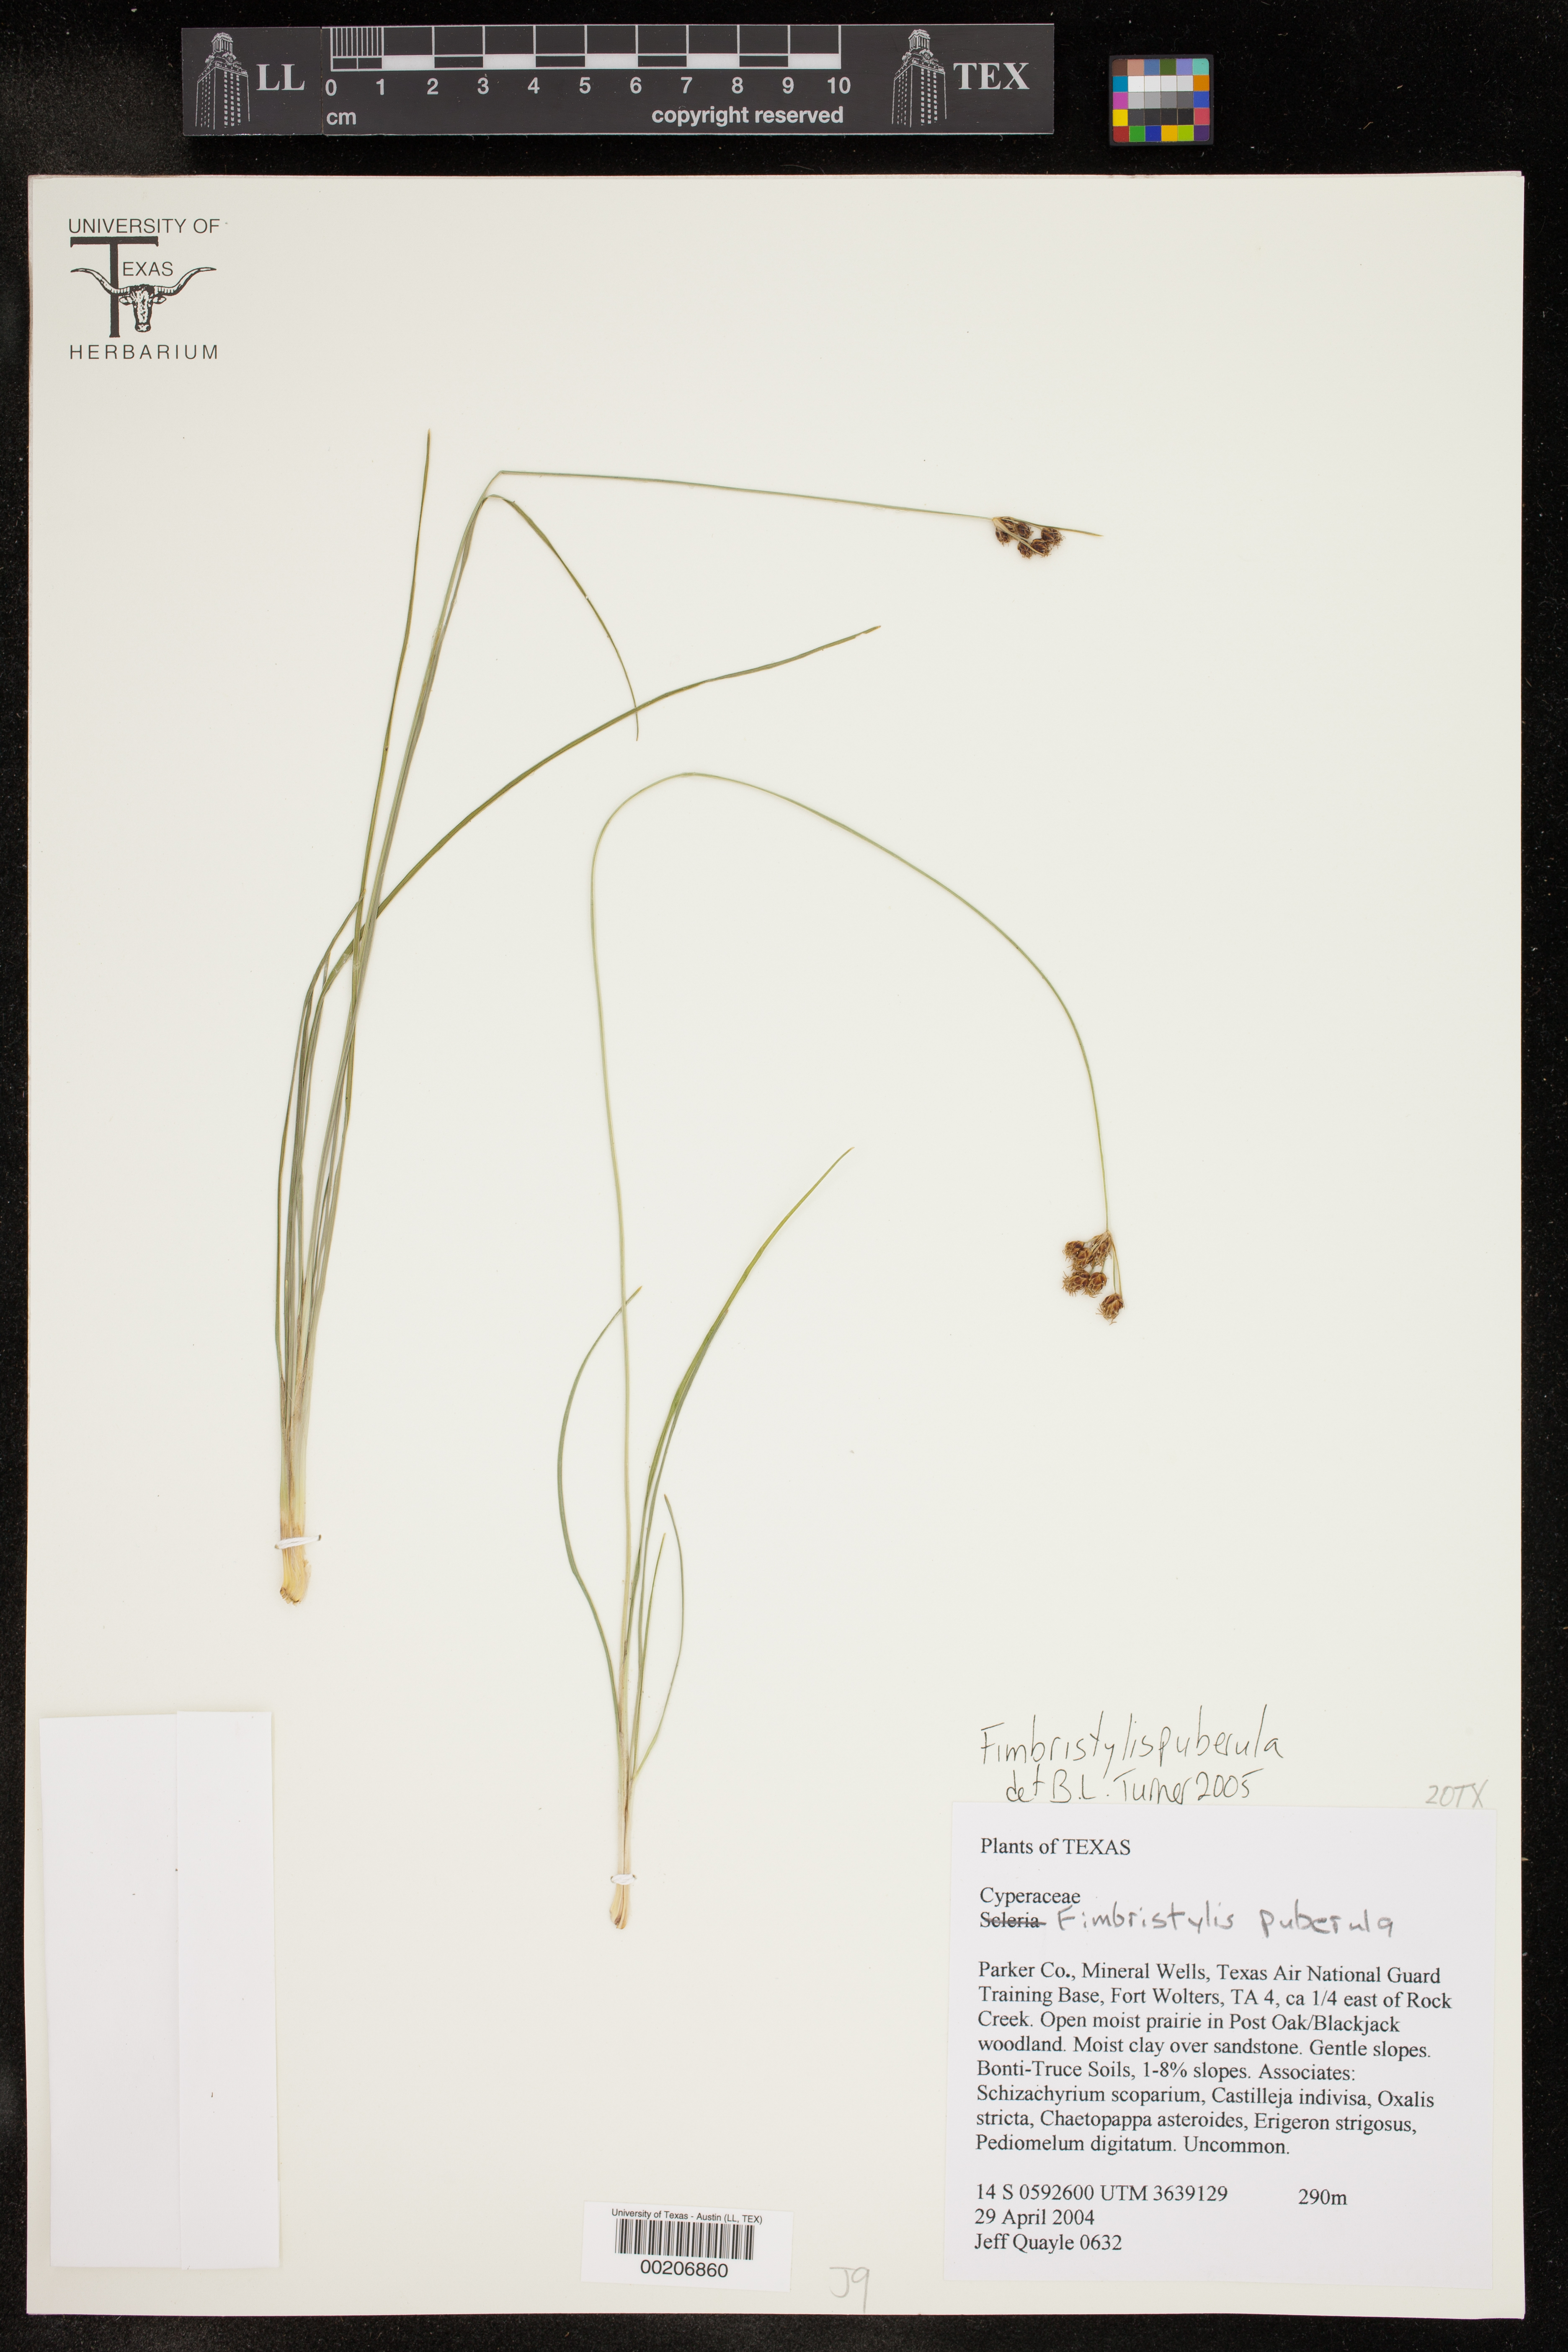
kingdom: Plantae
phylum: Tracheophyta
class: Liliopsida
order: Poales
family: Cyperaceae
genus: Fimbristylis
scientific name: Fimbristylis puberula
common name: Hairy fimbristylis
